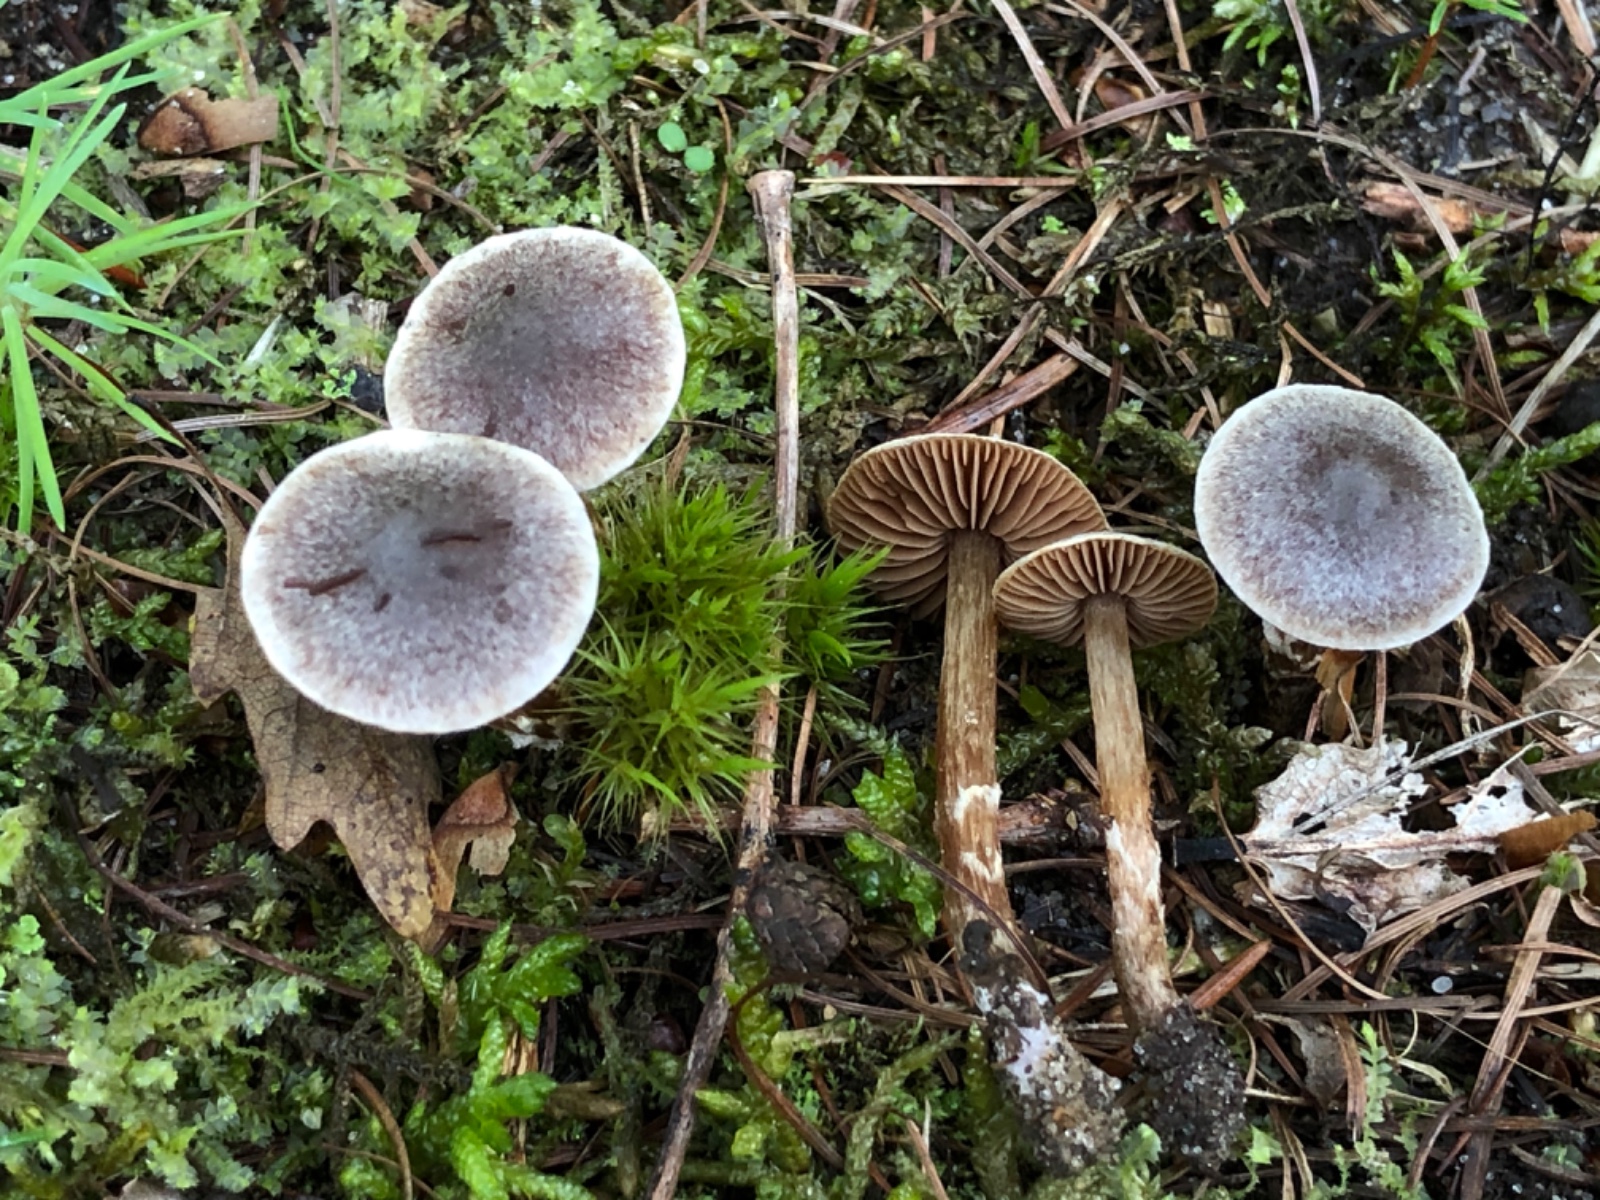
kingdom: Fungi
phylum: Basidiomycota
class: Agaricomycetes
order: Agaricales
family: Cortinariaceae
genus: Cortinarius
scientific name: Cortinarius
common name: pelargonie-slørhat
